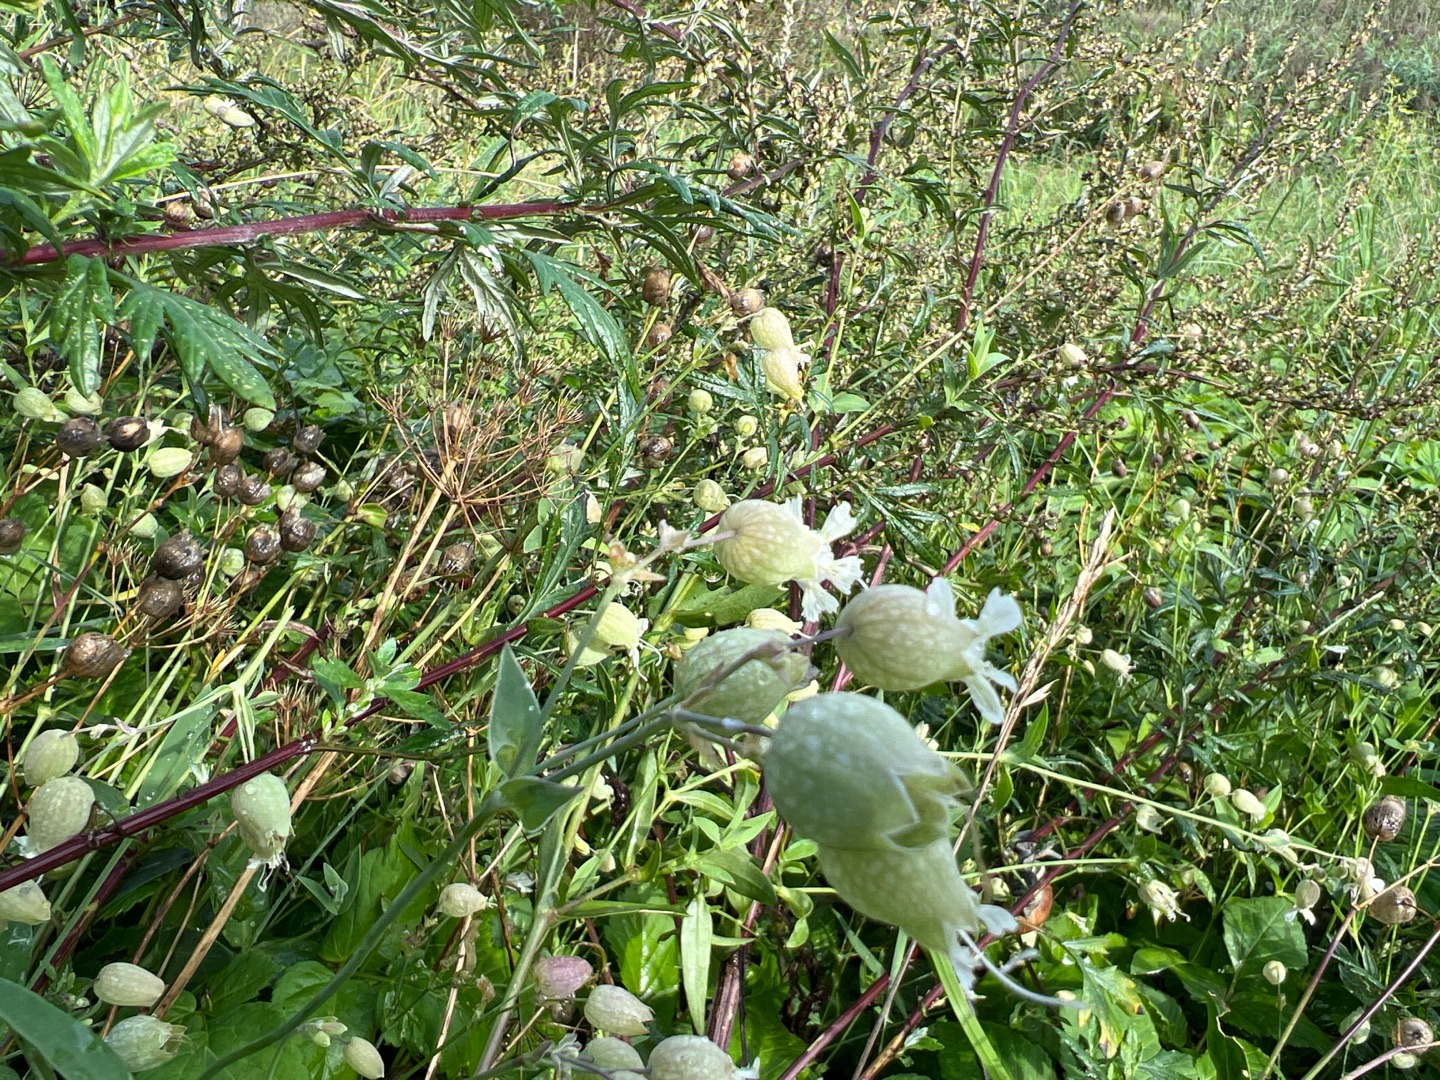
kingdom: Plantae
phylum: Tracheophyta
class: Magnoliopsida
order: Caryophyllales
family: Caryophyllaceae
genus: Silene
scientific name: Silene vulgaris
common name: Blæresmælde
